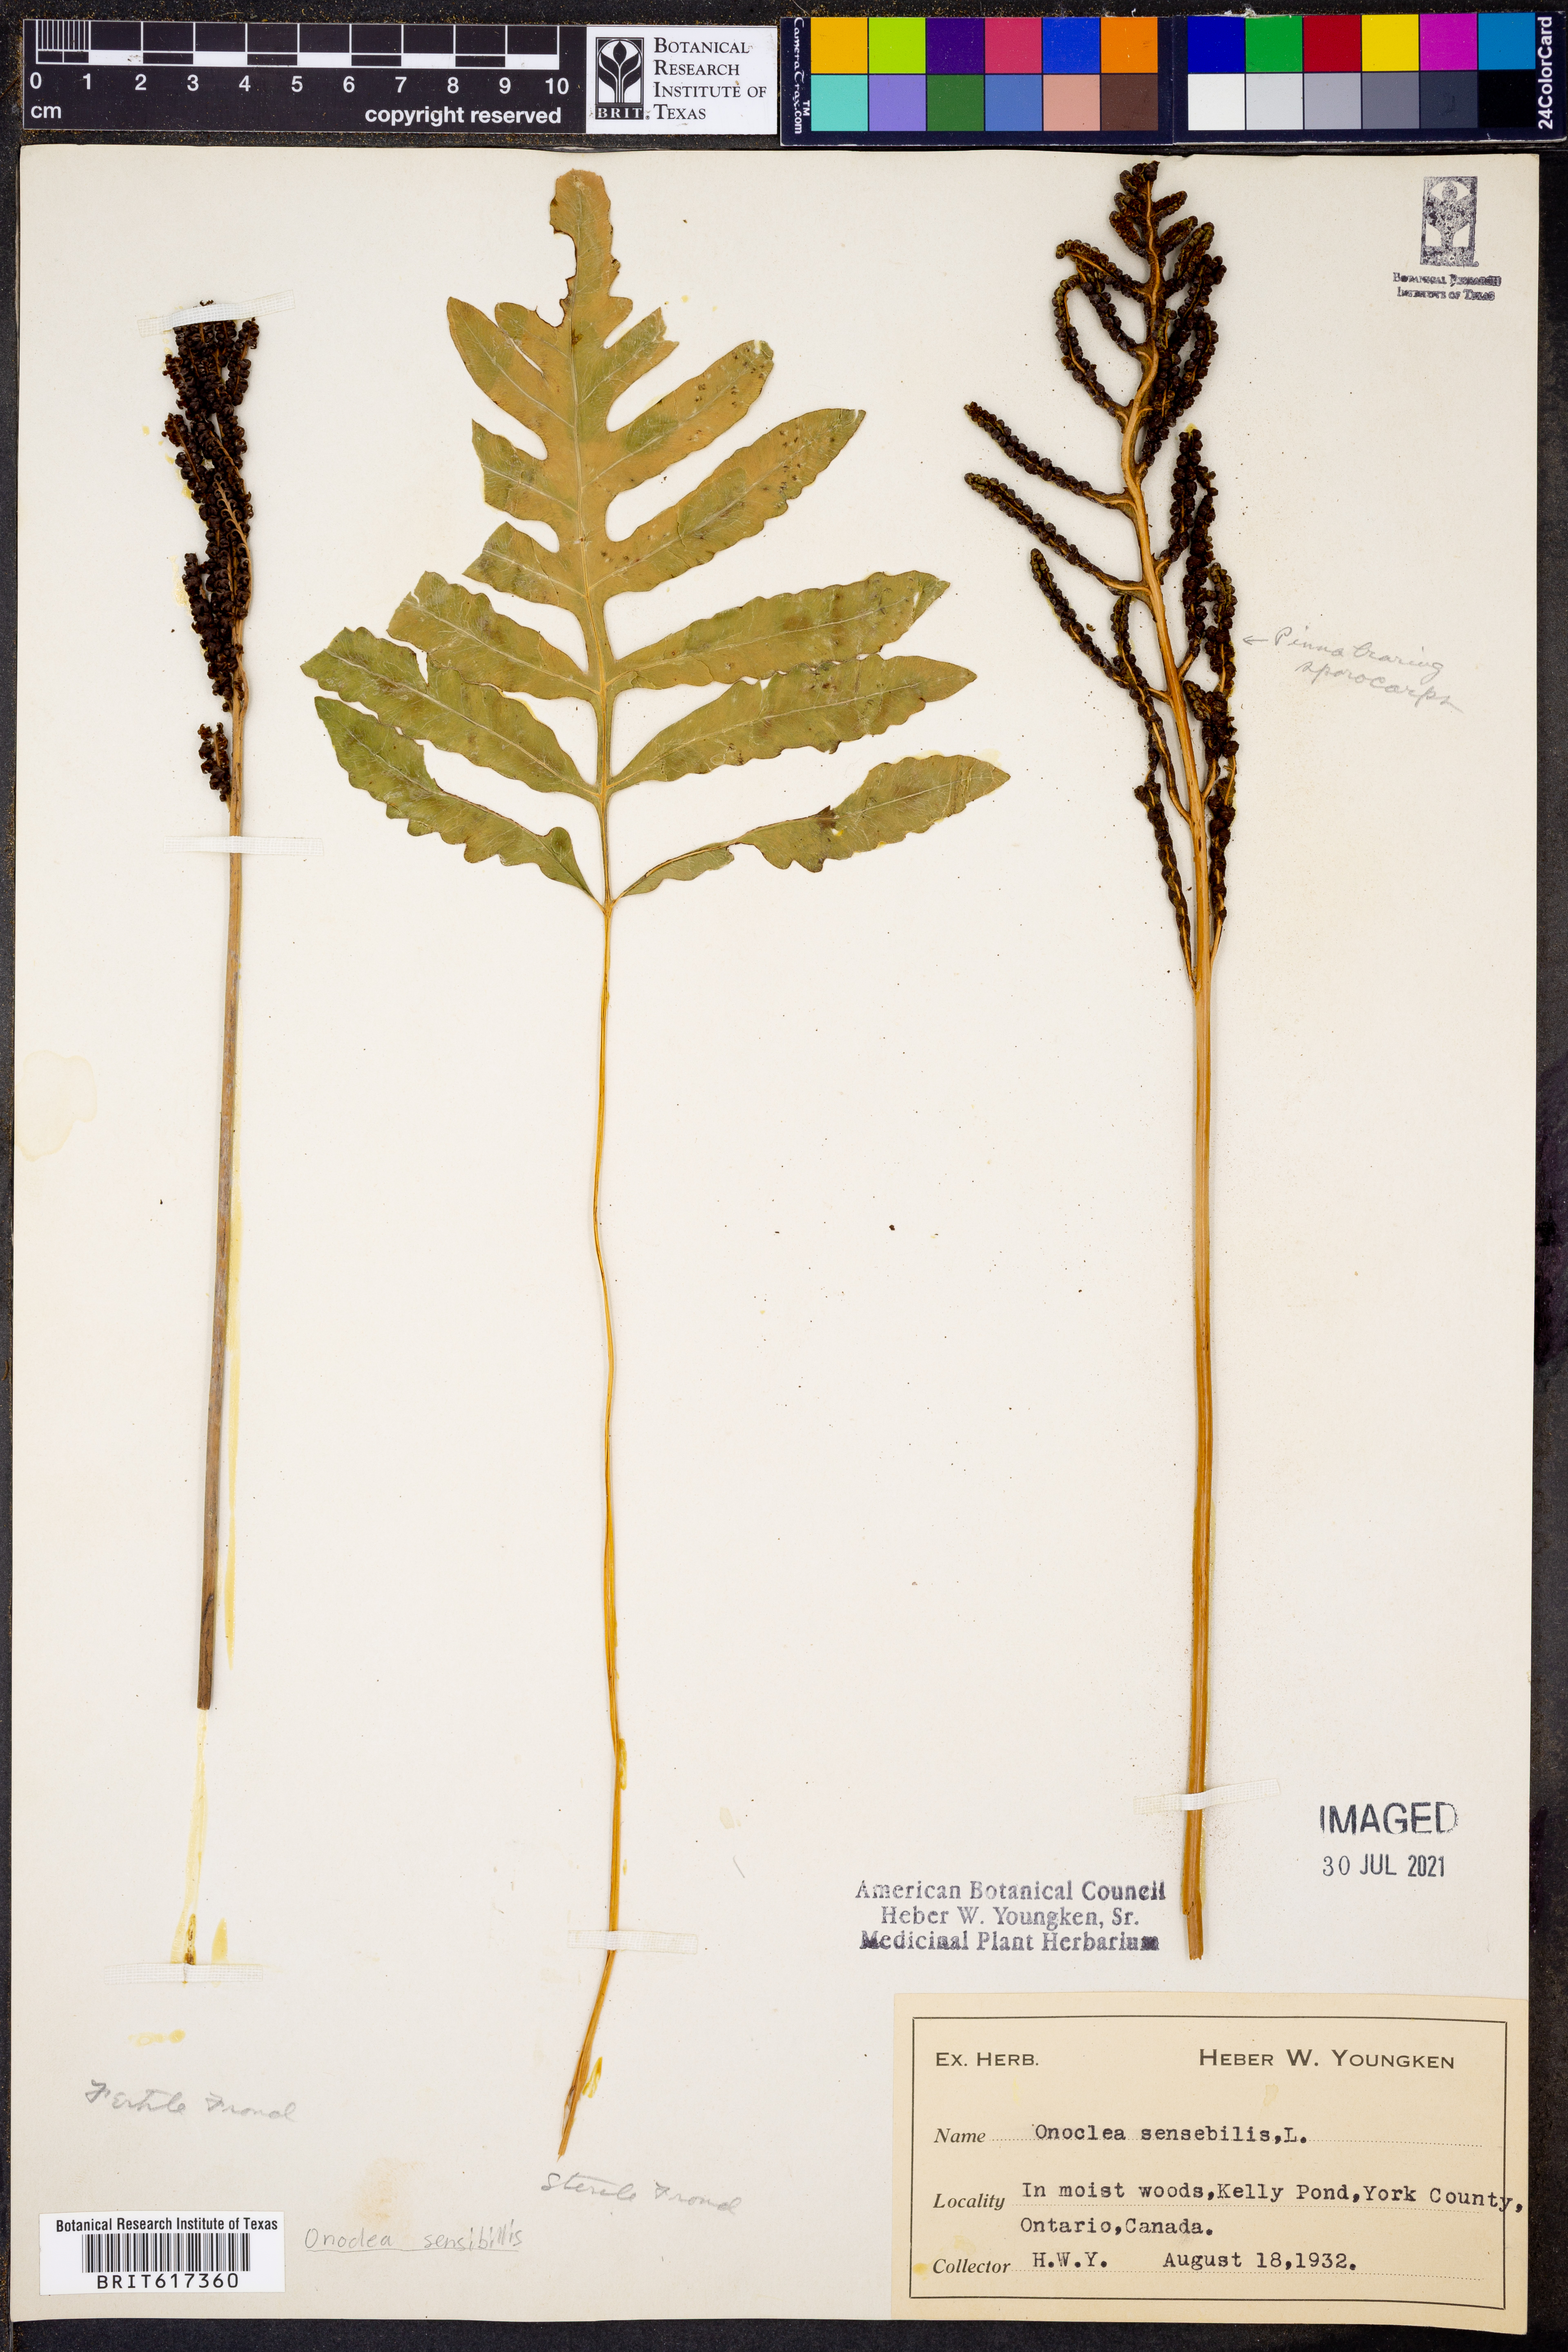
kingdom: Plantae
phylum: Tracheophyta
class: Polypodiopsida
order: Polypodiales
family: Onocleaceae
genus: Onoclea
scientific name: Onoclea sensibilis
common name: Sensitive fern
